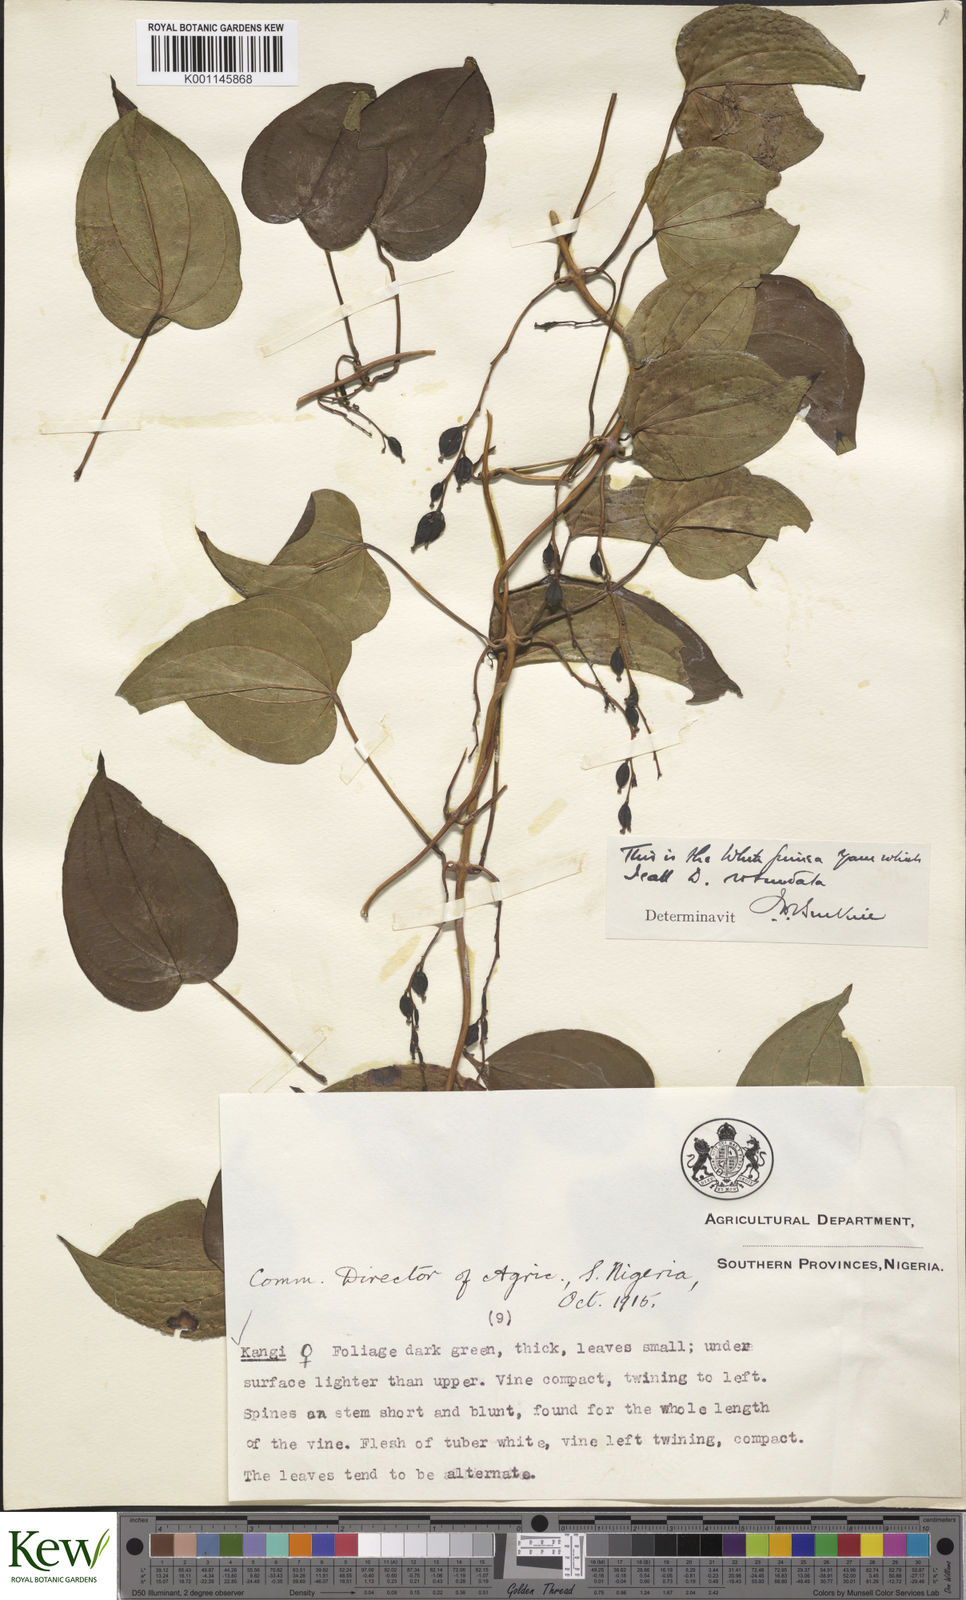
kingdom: Plantae
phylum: Tracheophyta
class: Liliopsida
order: Dioscoreales
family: Dioscoreaceae
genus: Dioscorea
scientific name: Dioscorea cayenensis
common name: Attoto yam
